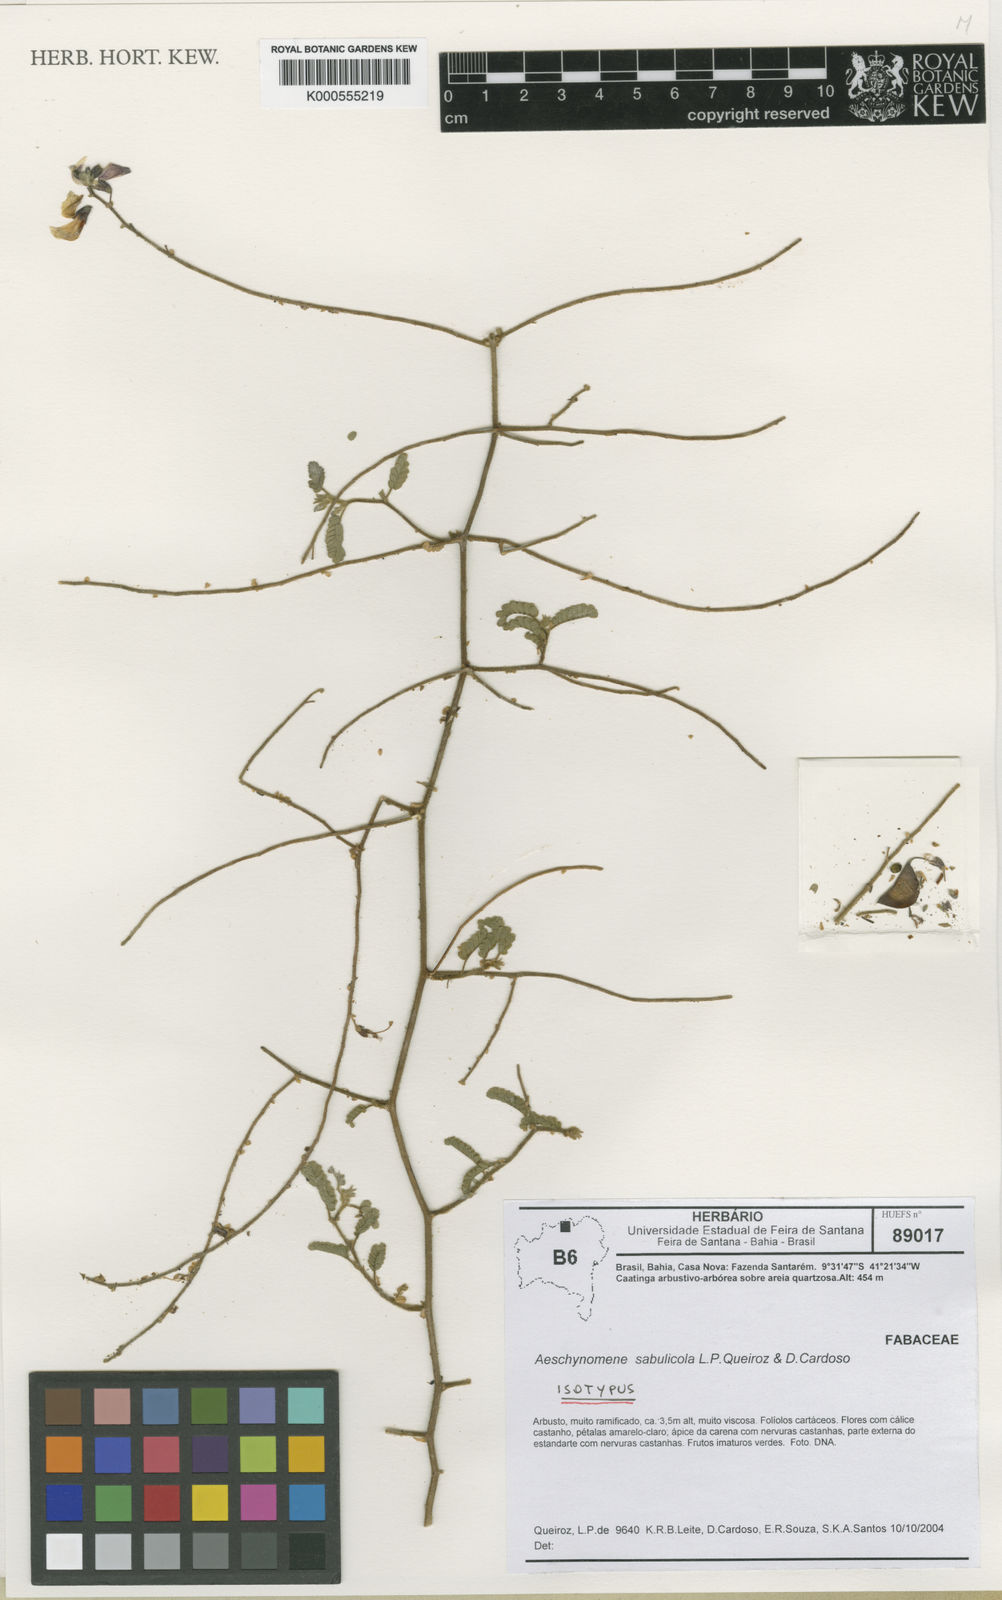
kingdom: Plantae
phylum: Tracheophyta
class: Magnoliopsida
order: Fabales
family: Fabaceae
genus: Ctenodon
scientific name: Ctenodon sabulicola
